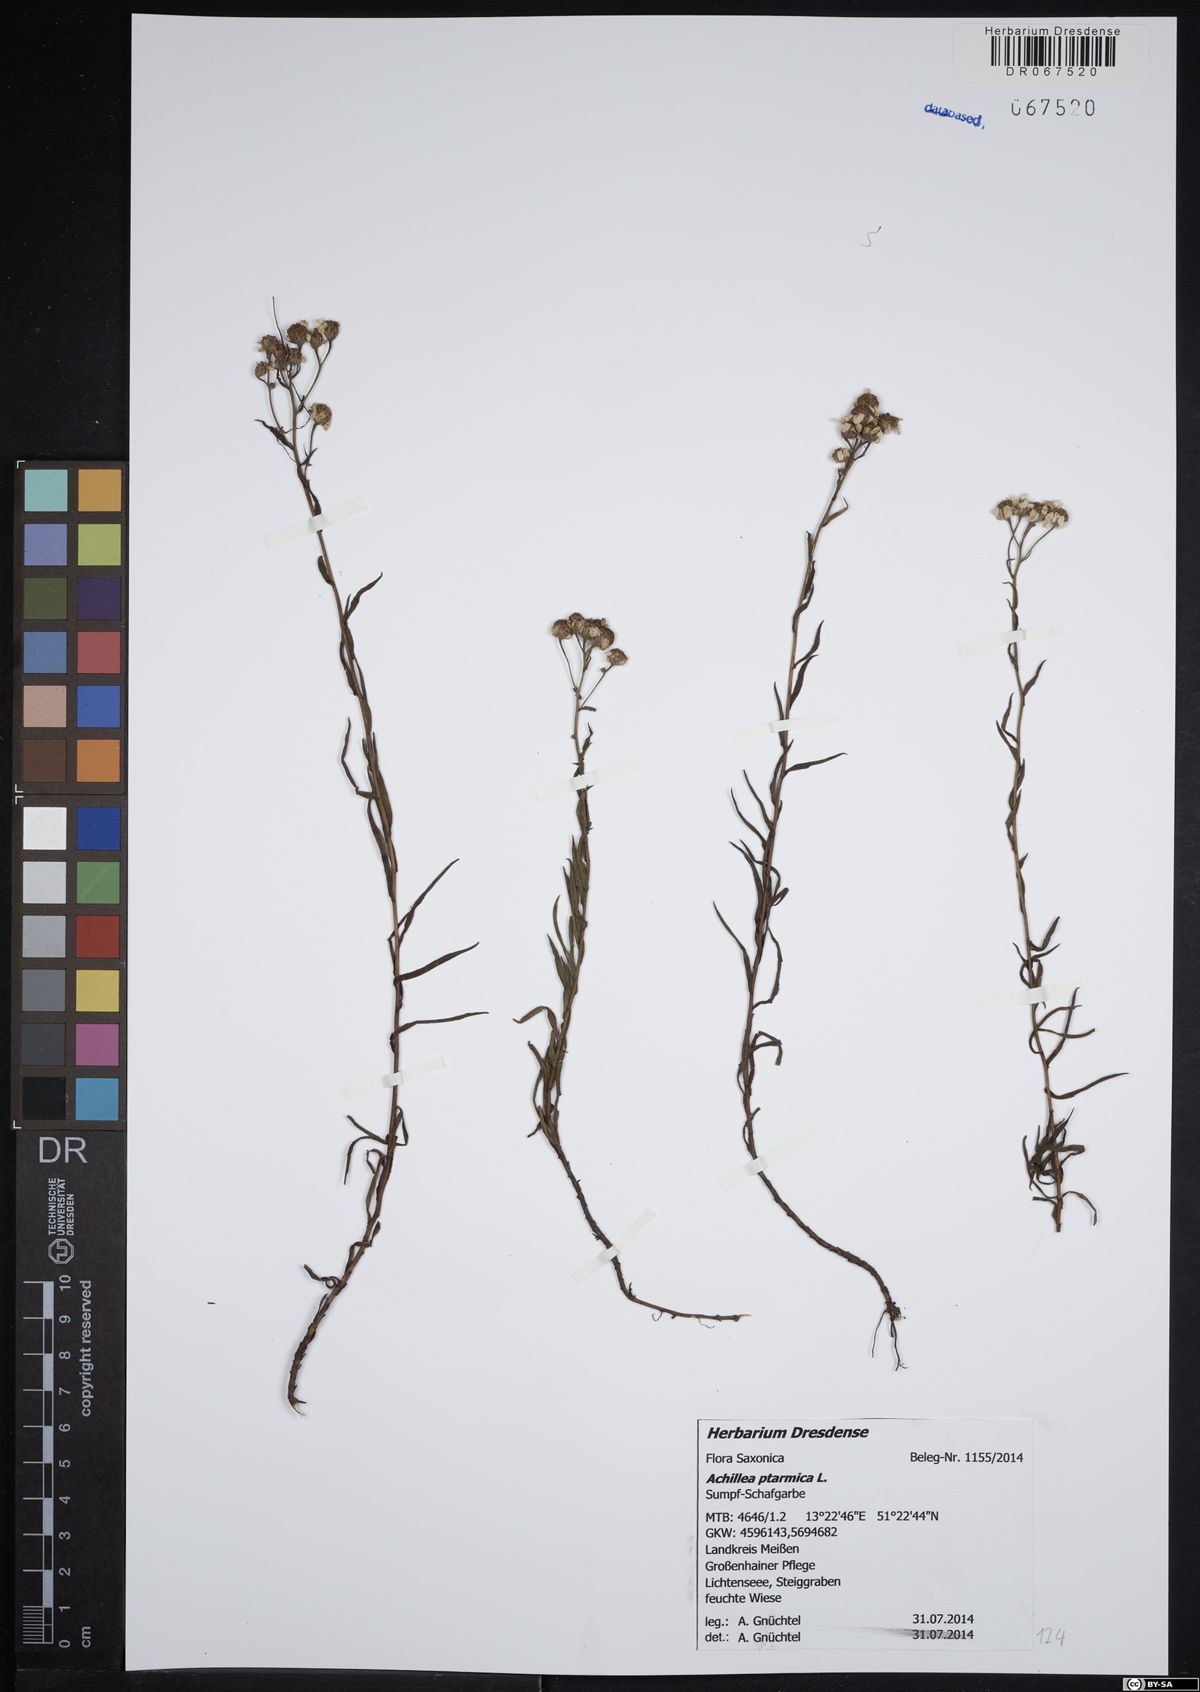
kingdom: Plantae
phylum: Tracheophyta
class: Magnoliopsida
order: Asterales
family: Asteraceae
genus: Achillea
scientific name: Achillea ptarmica
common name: Sneezeweed
